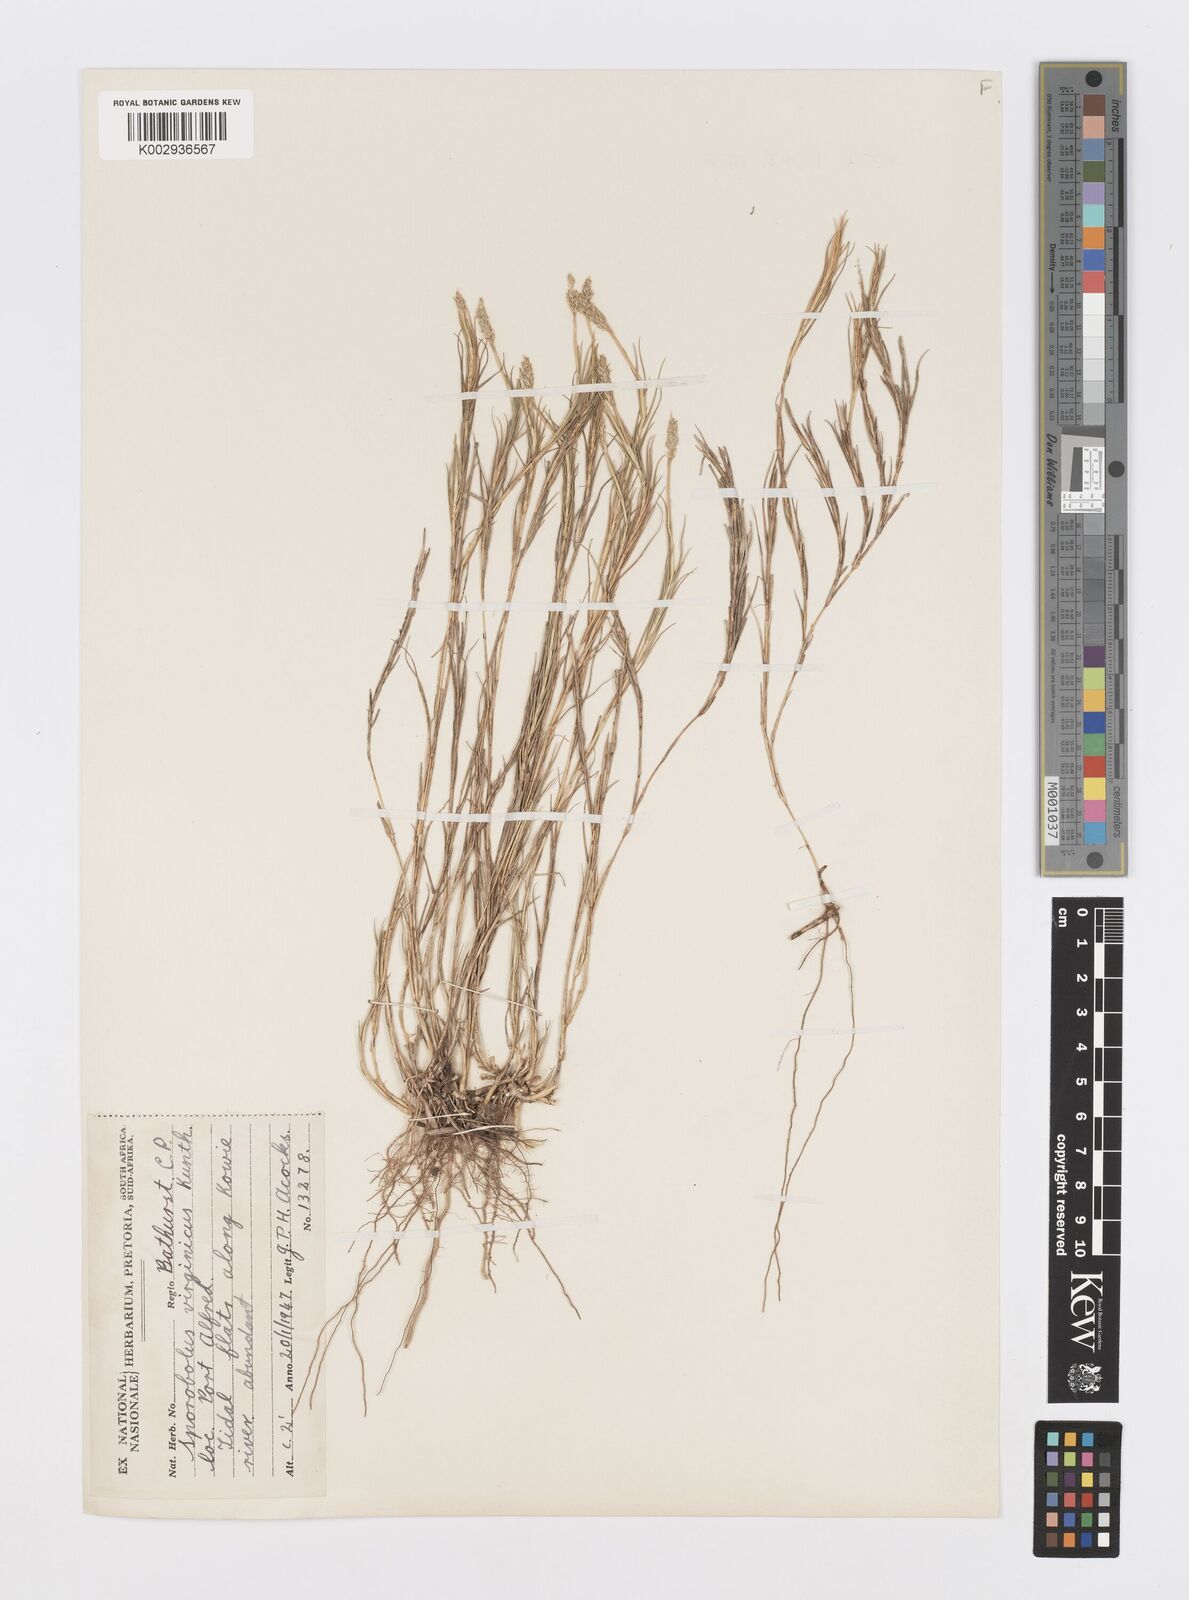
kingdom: Plantae
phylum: Tracheophyta
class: Liliopsida
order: Poales
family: Poaceae
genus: Sporobolus
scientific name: Sporobolus virginicus
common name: Beach dropseed
